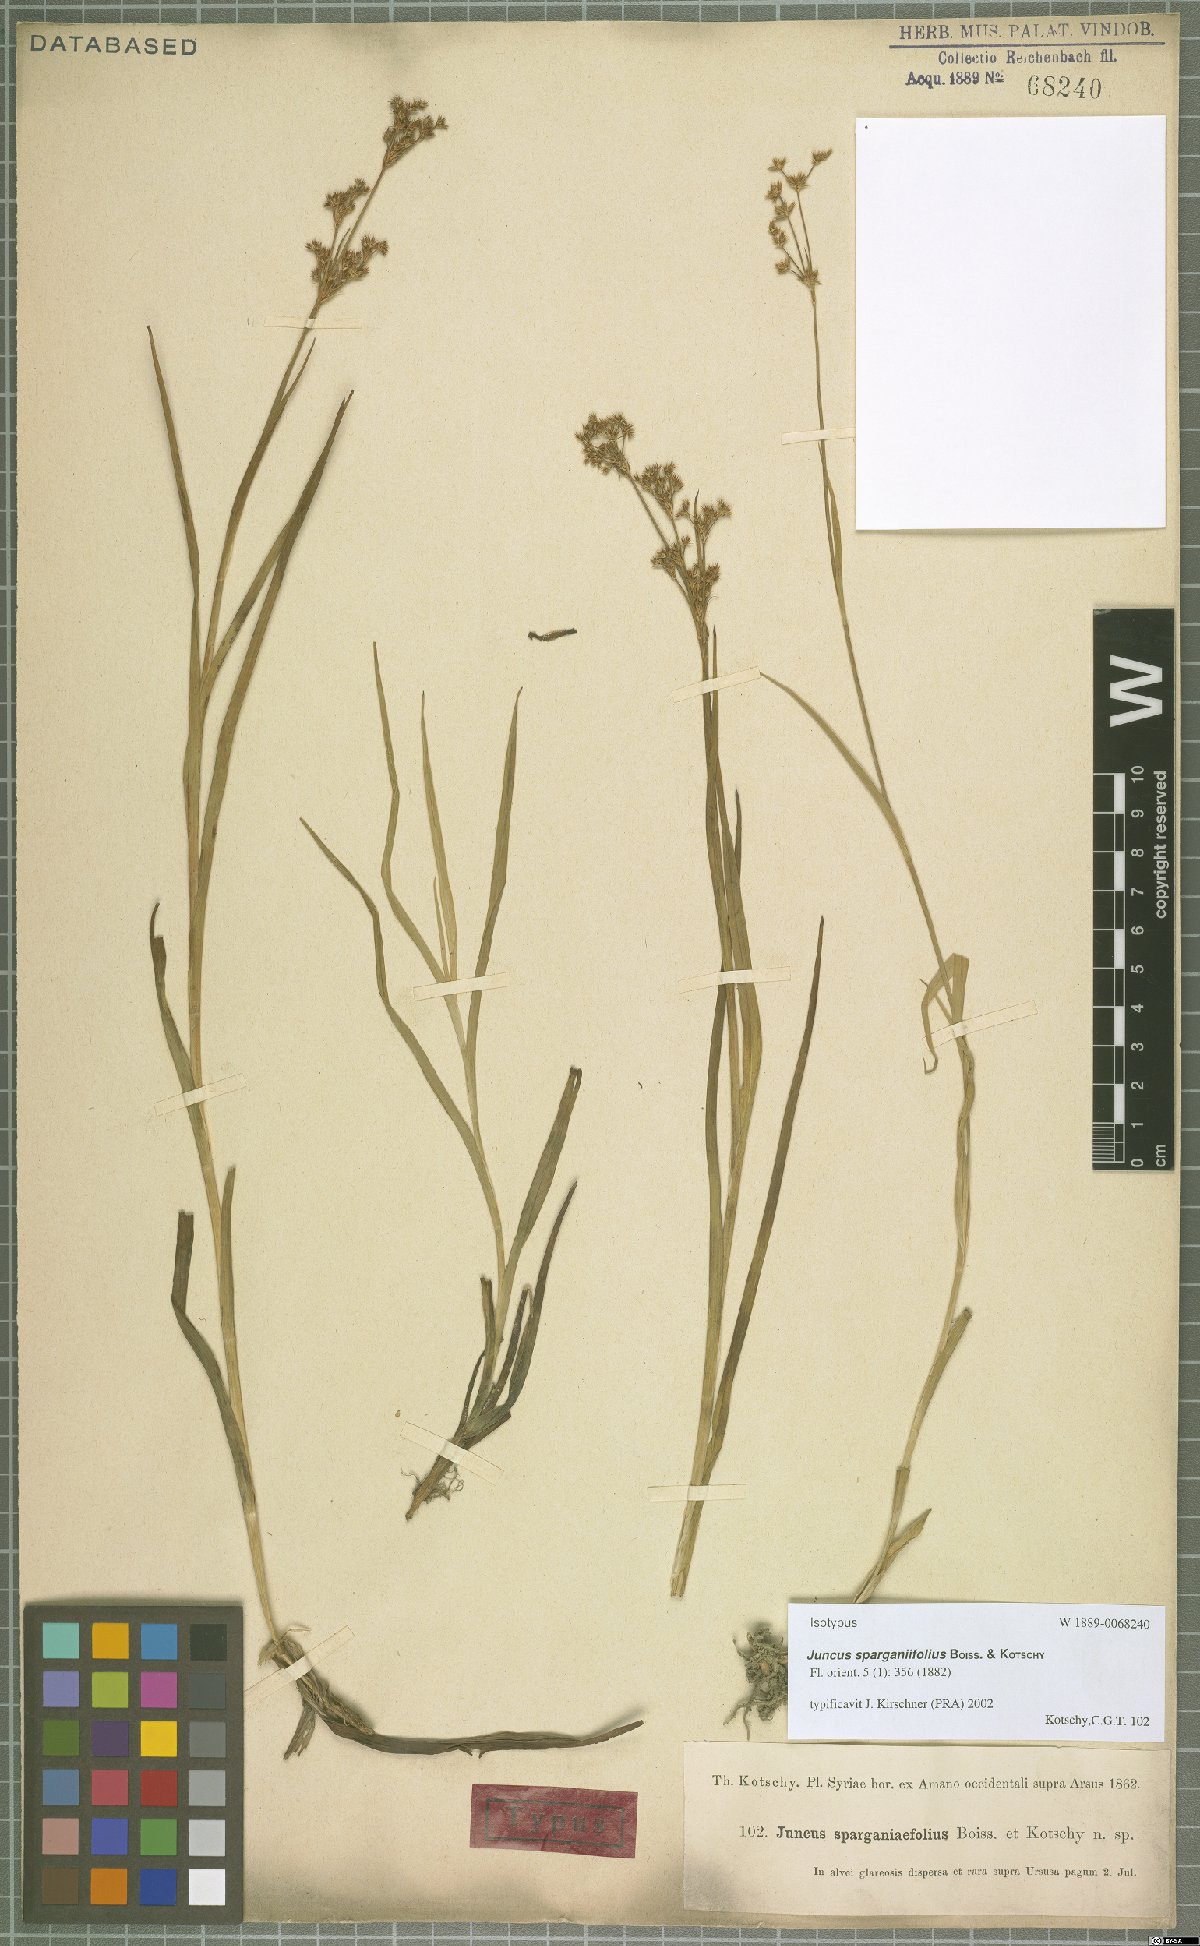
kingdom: Plantae
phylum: Tracheophyta
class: Liliopsida
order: Poales
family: Juncaceae
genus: Juncus
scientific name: Juncus sparganiifolius
